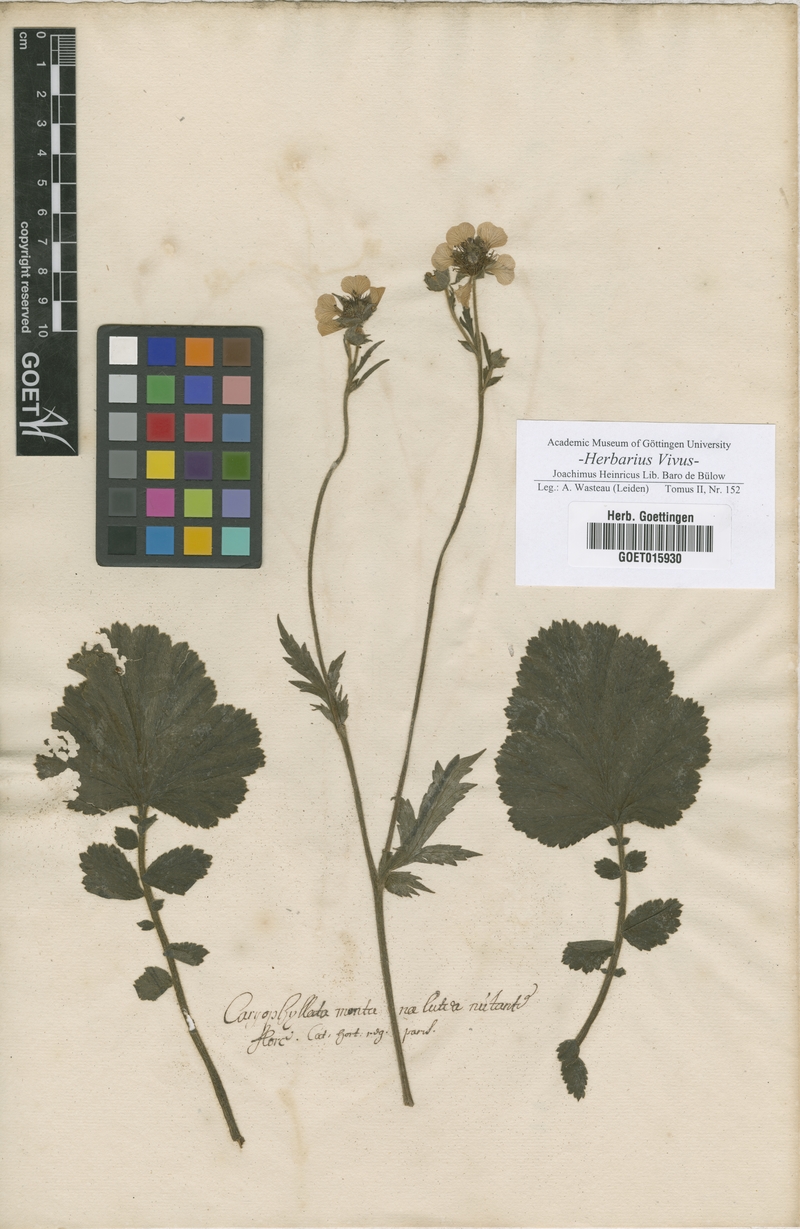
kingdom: Plantae
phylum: Tracheophyta
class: Magnoliopsida
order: Rosales
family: Rosaceae
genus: Caryophyllata
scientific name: Caryophyllata
